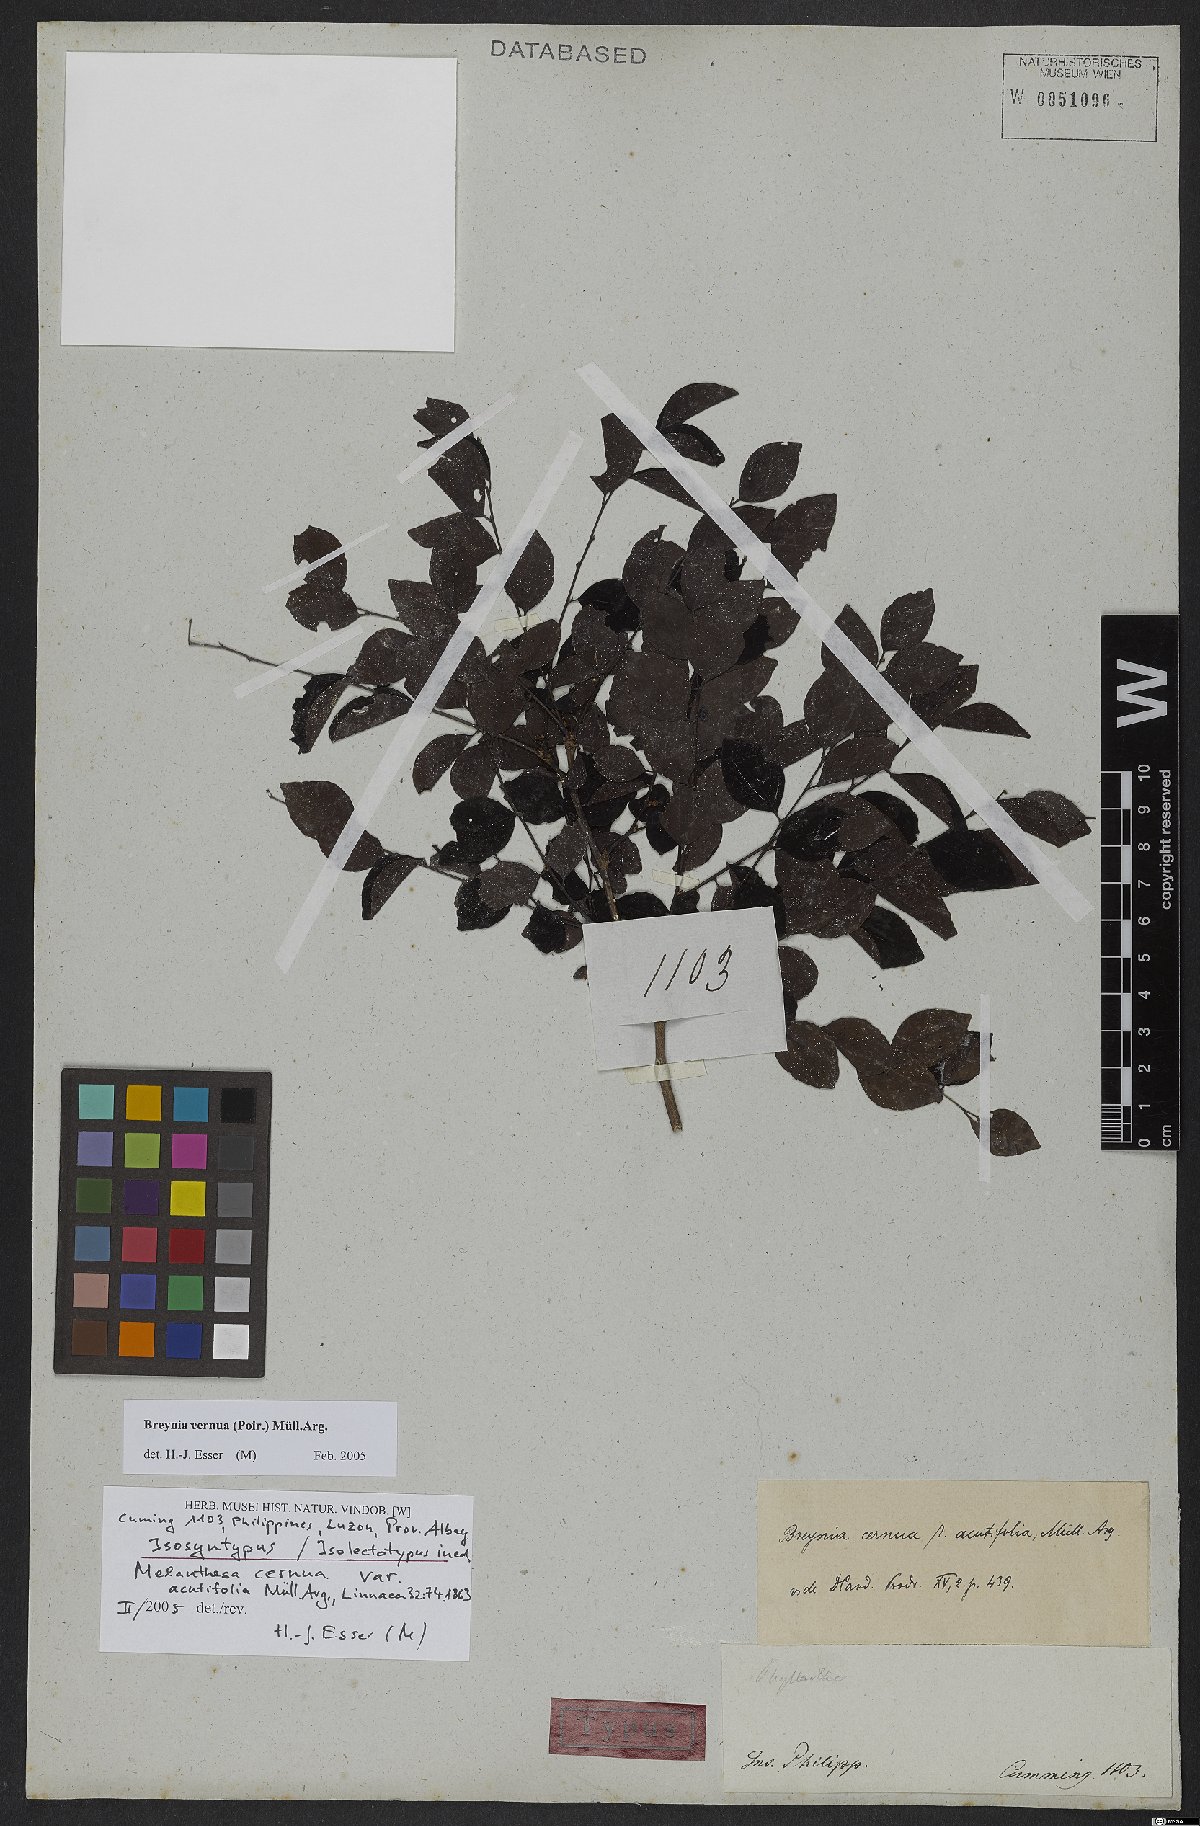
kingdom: Plantae
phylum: Tracheophyta
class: Magnoliopsida
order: Malpighiales
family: Phyllanthaceae
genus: Breynia
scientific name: Breynia cernua
